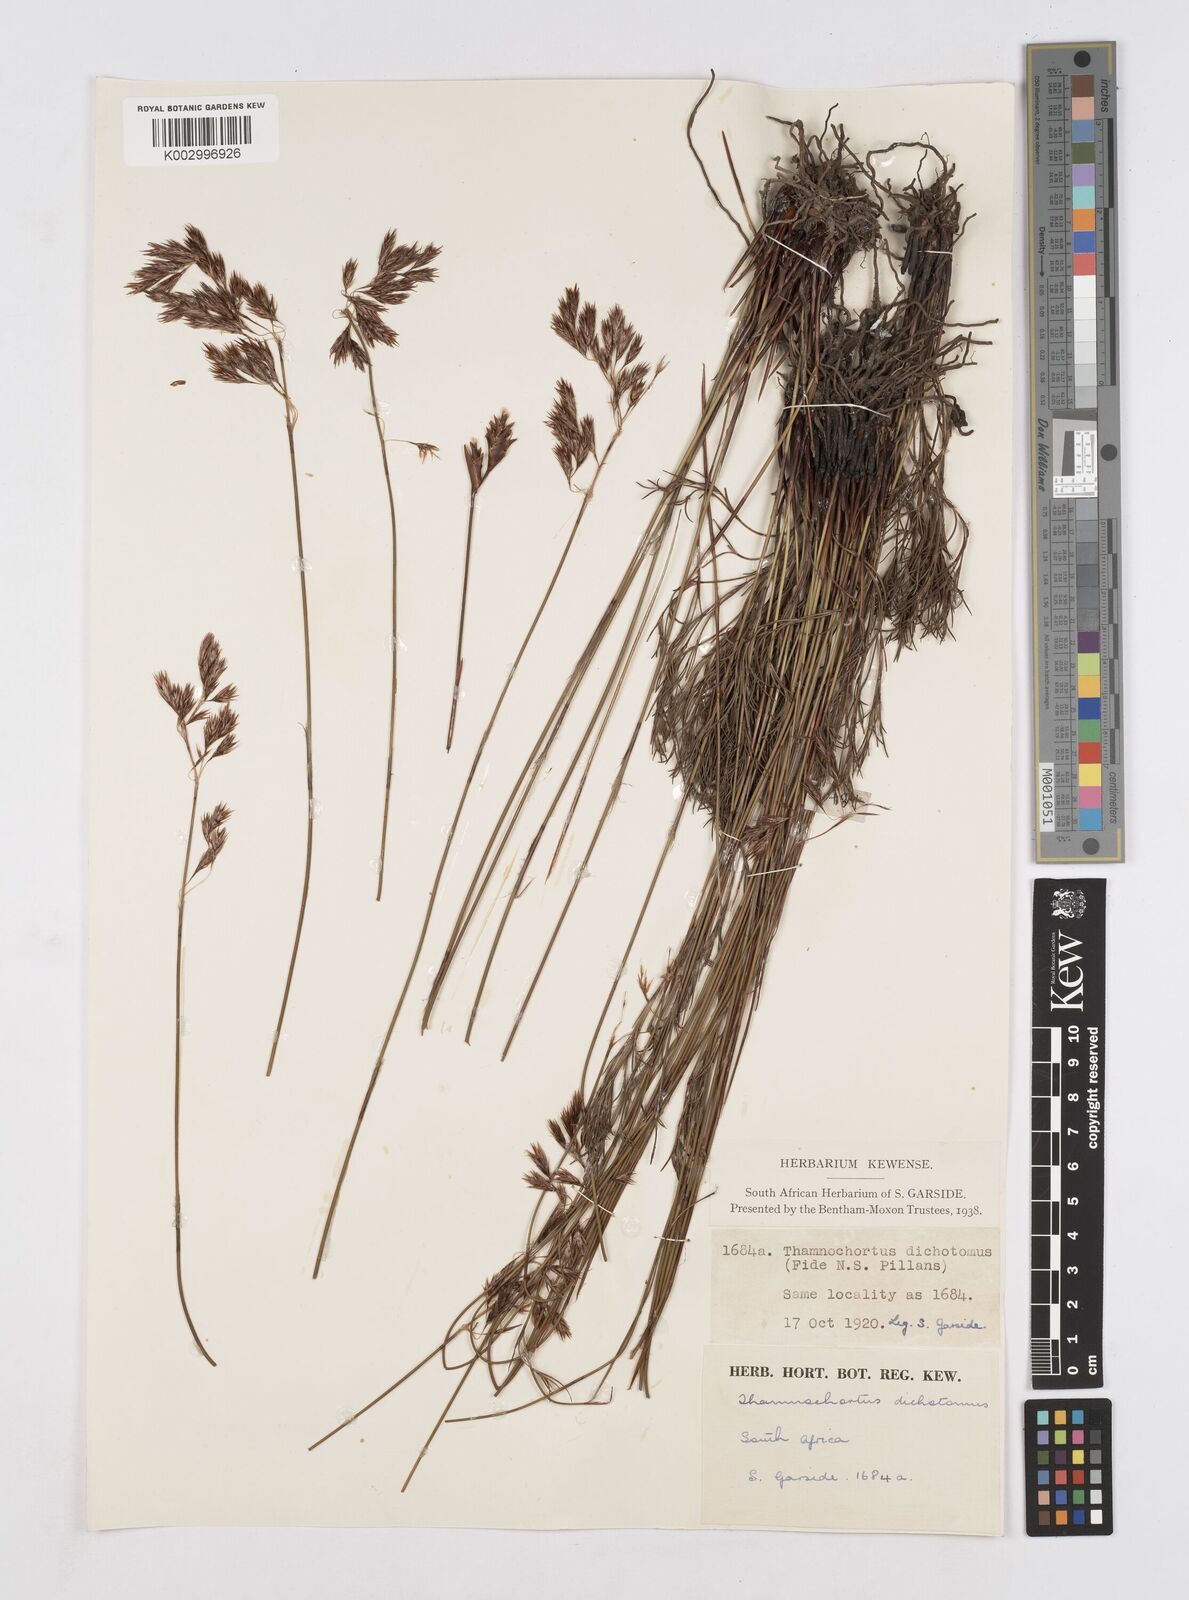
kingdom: Plantae
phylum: Tracheophyta
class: Liliopsida
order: Poales
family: Restionaceae
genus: Thamnochortus
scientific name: Thamnochortus lucens
